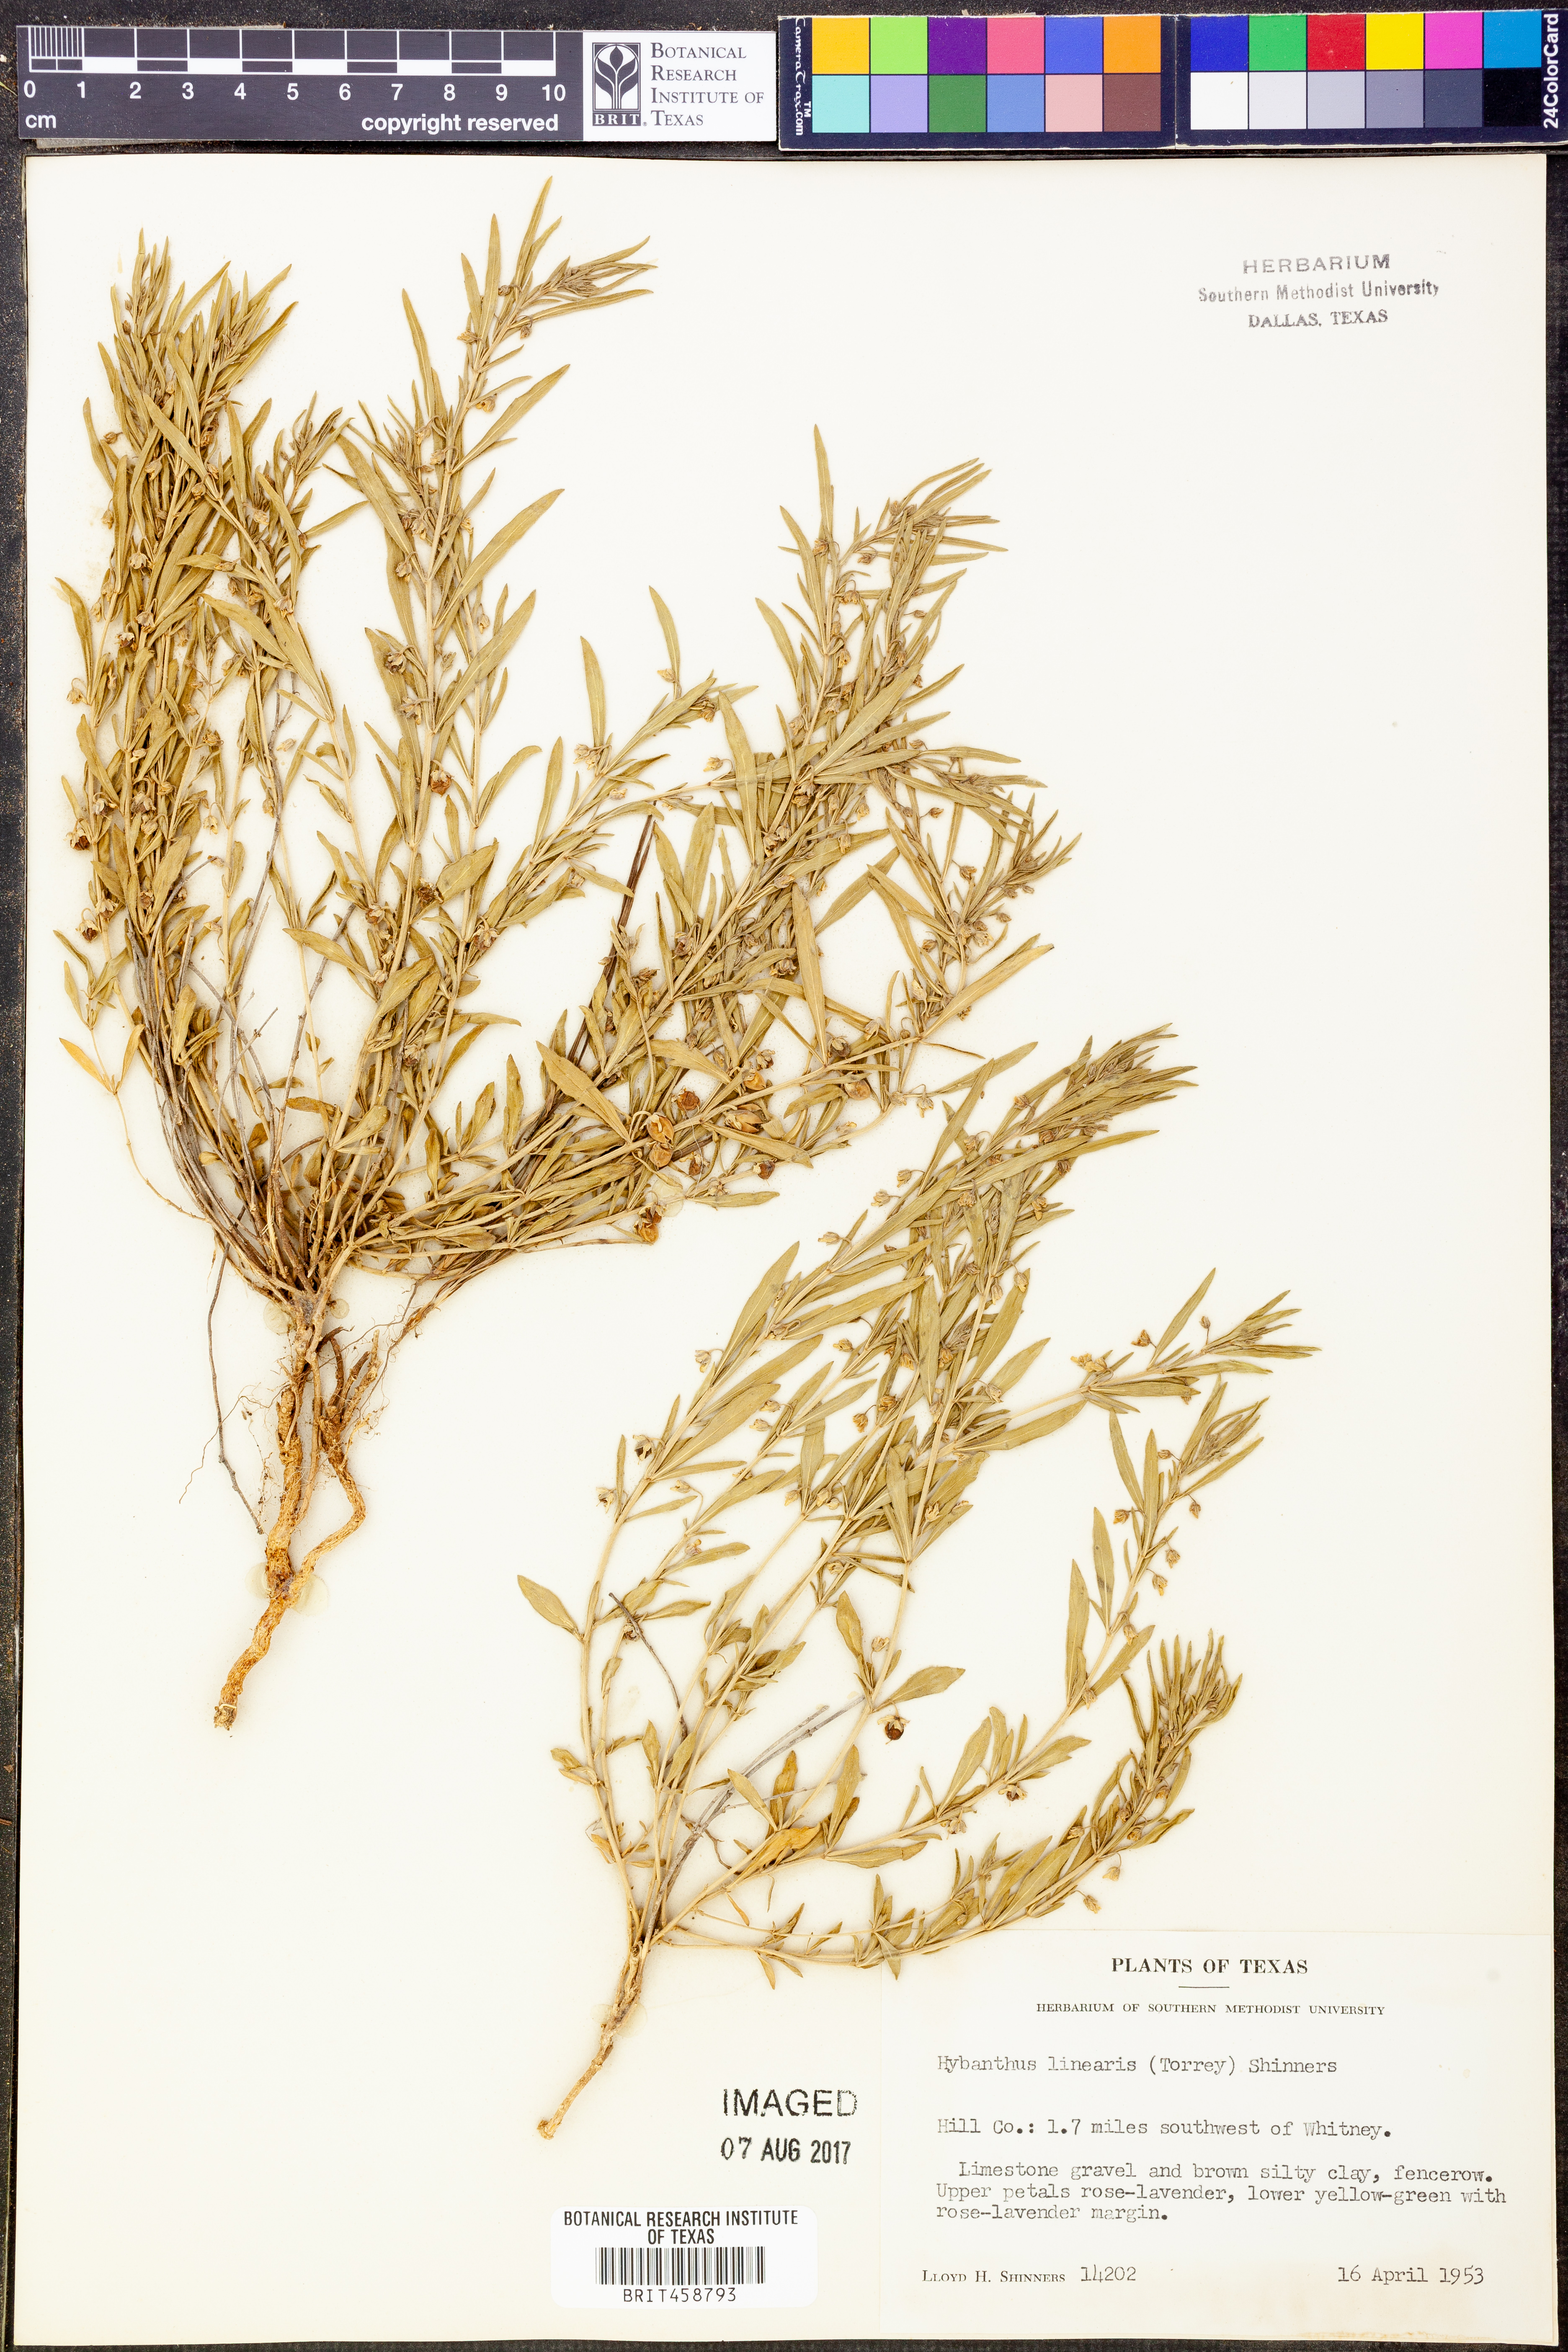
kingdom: Plantae
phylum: Tracheophyta
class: Magnoliopsida
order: Malpighiales
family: Violaceae
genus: Pombalia
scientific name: Pombalia verticillata
